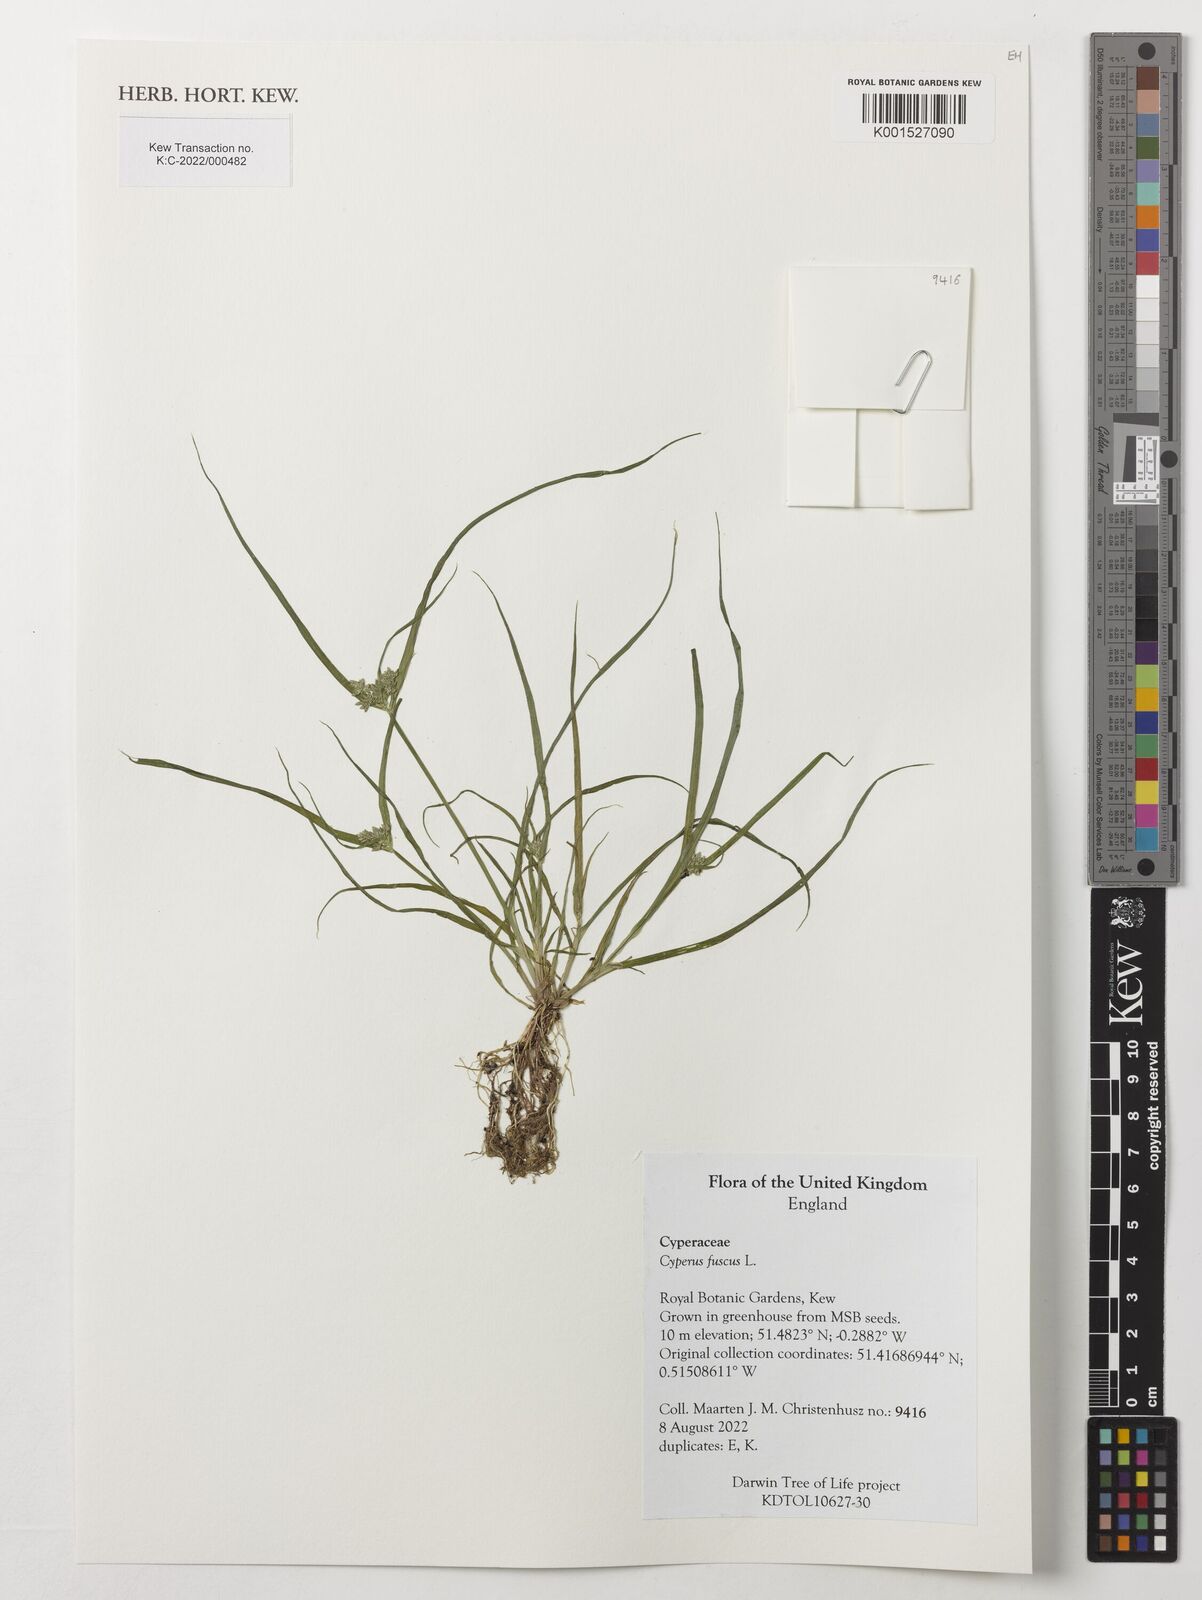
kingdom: Plantae
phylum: Tracheophyta
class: Liliopsida
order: Poales
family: Cyperaceae
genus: Cyperus
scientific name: Cyperus fuscus
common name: Brown galingale
